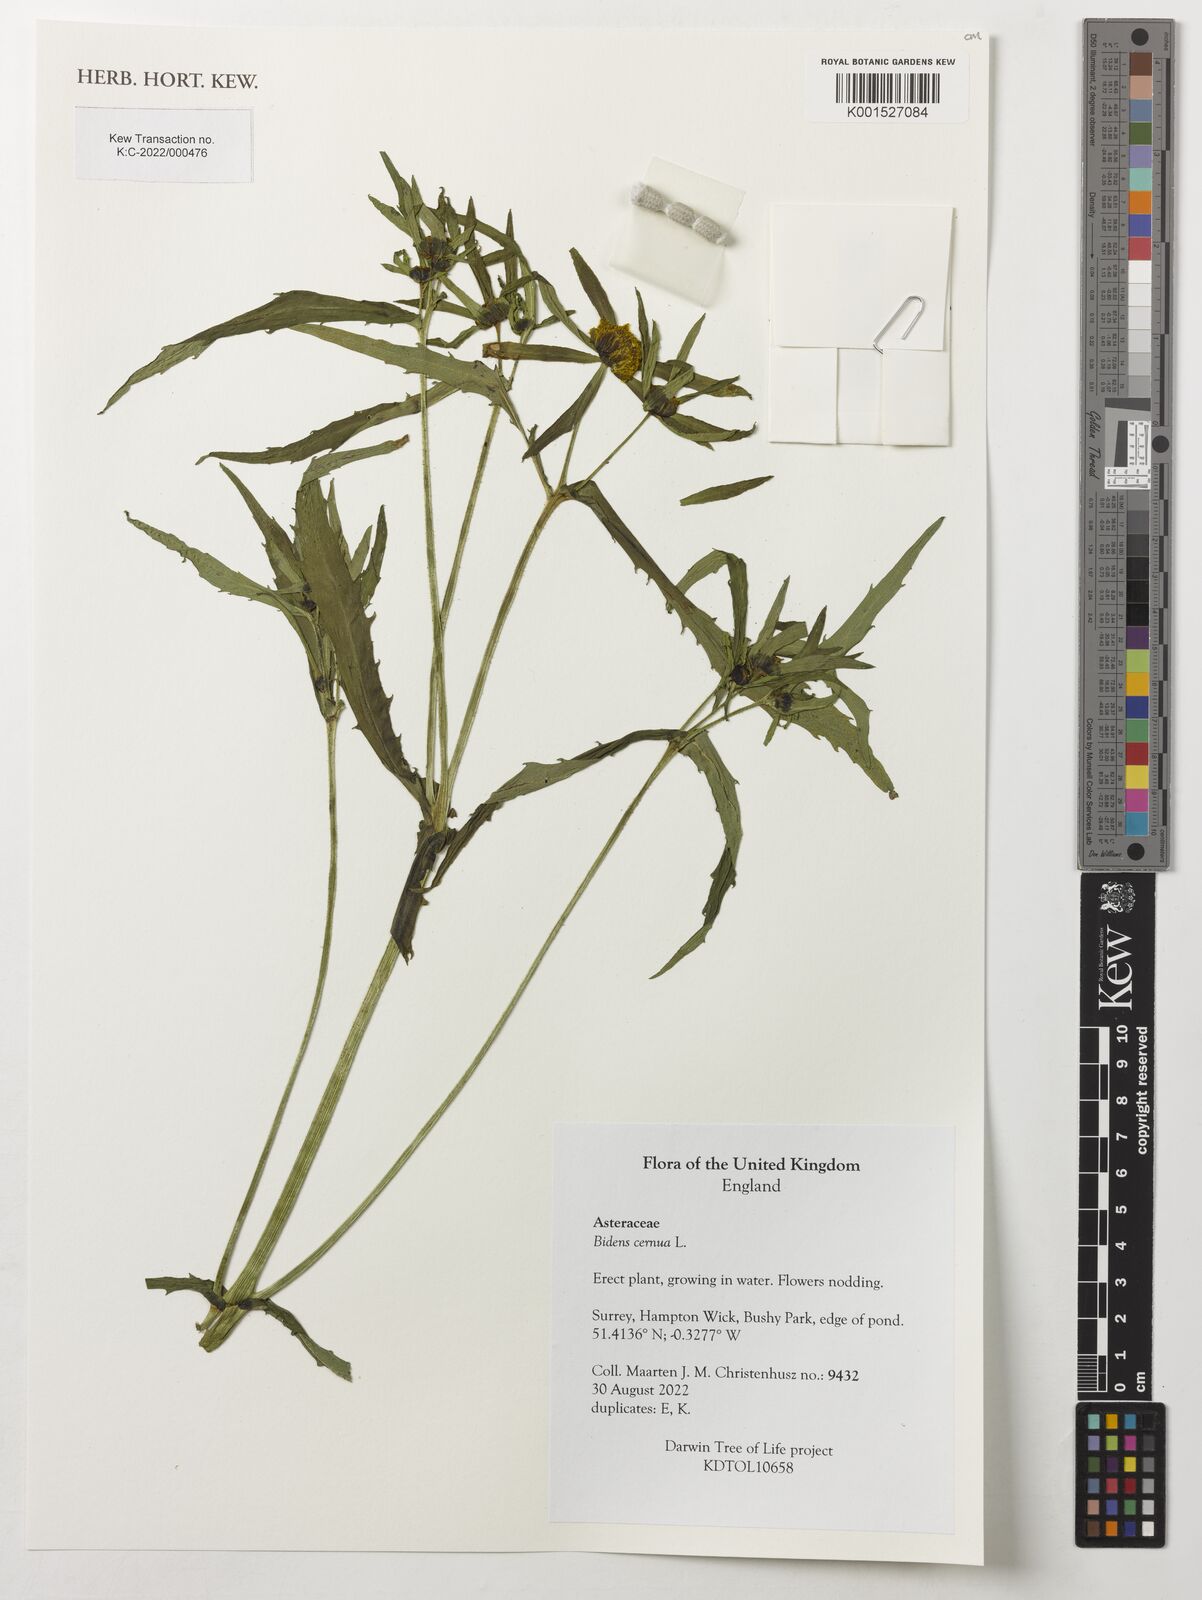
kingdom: Plantae
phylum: Tracheophyta
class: Magnoliopsida
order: Asterales
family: Asteraceae
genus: Bidens
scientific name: Bidens cernua
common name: Nodding bur-marigold
